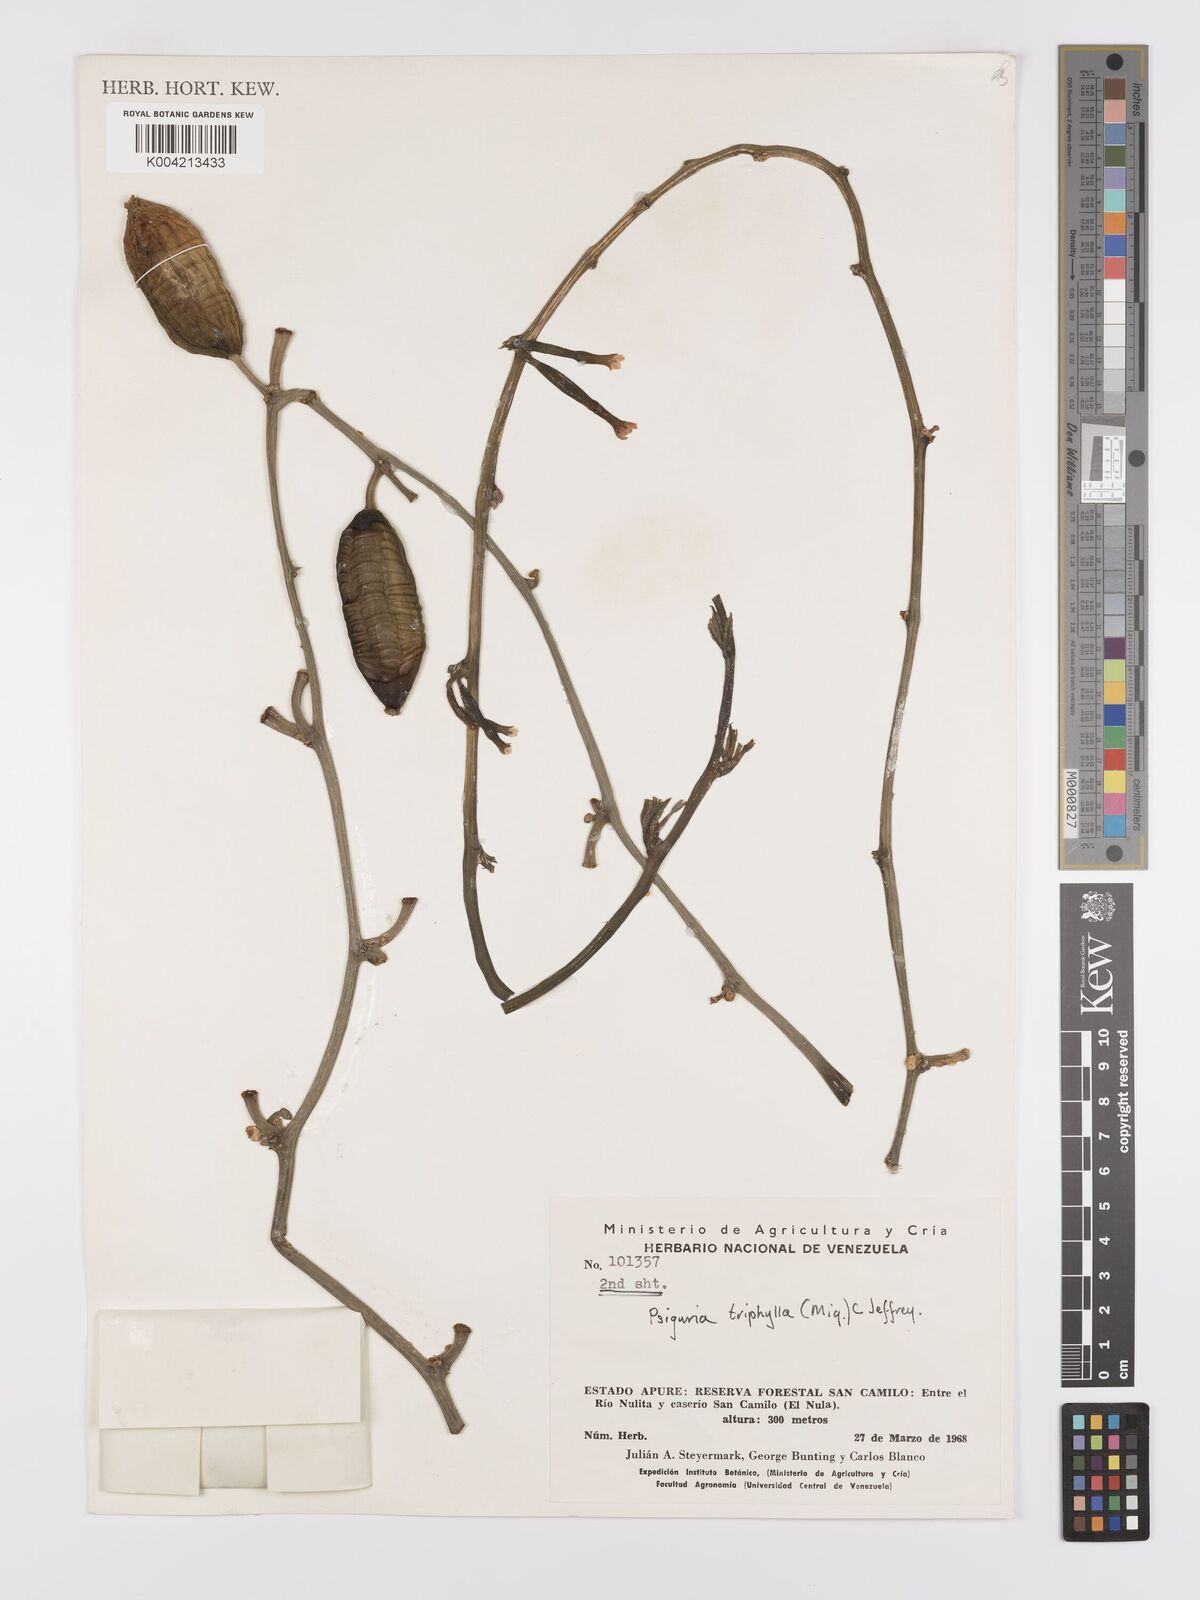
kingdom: Plantae
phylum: Tracheophyta
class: Magnoliopsida
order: Cucurbitales
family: Cucurbitaceae
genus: Psiguria
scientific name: Psiguria triphylla
